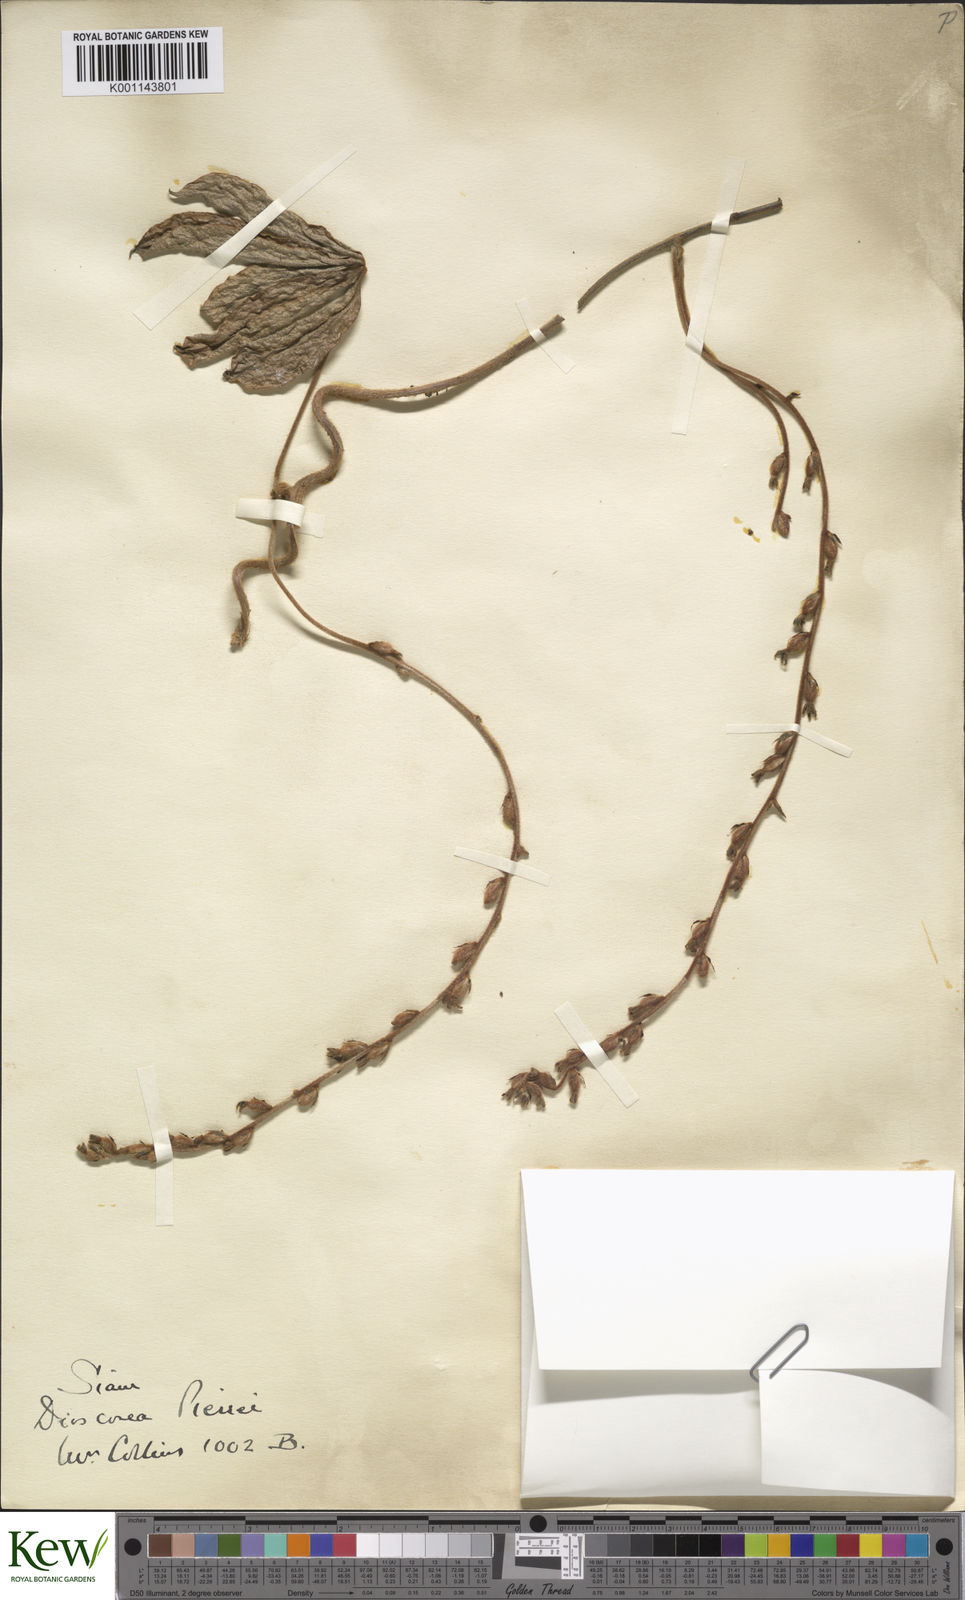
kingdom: Plantae
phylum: Tracheophyta
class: Liliopsida
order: Dioscoreales
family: Dioscoreaceae
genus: Dioscorea
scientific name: Dioscorea pierrei
